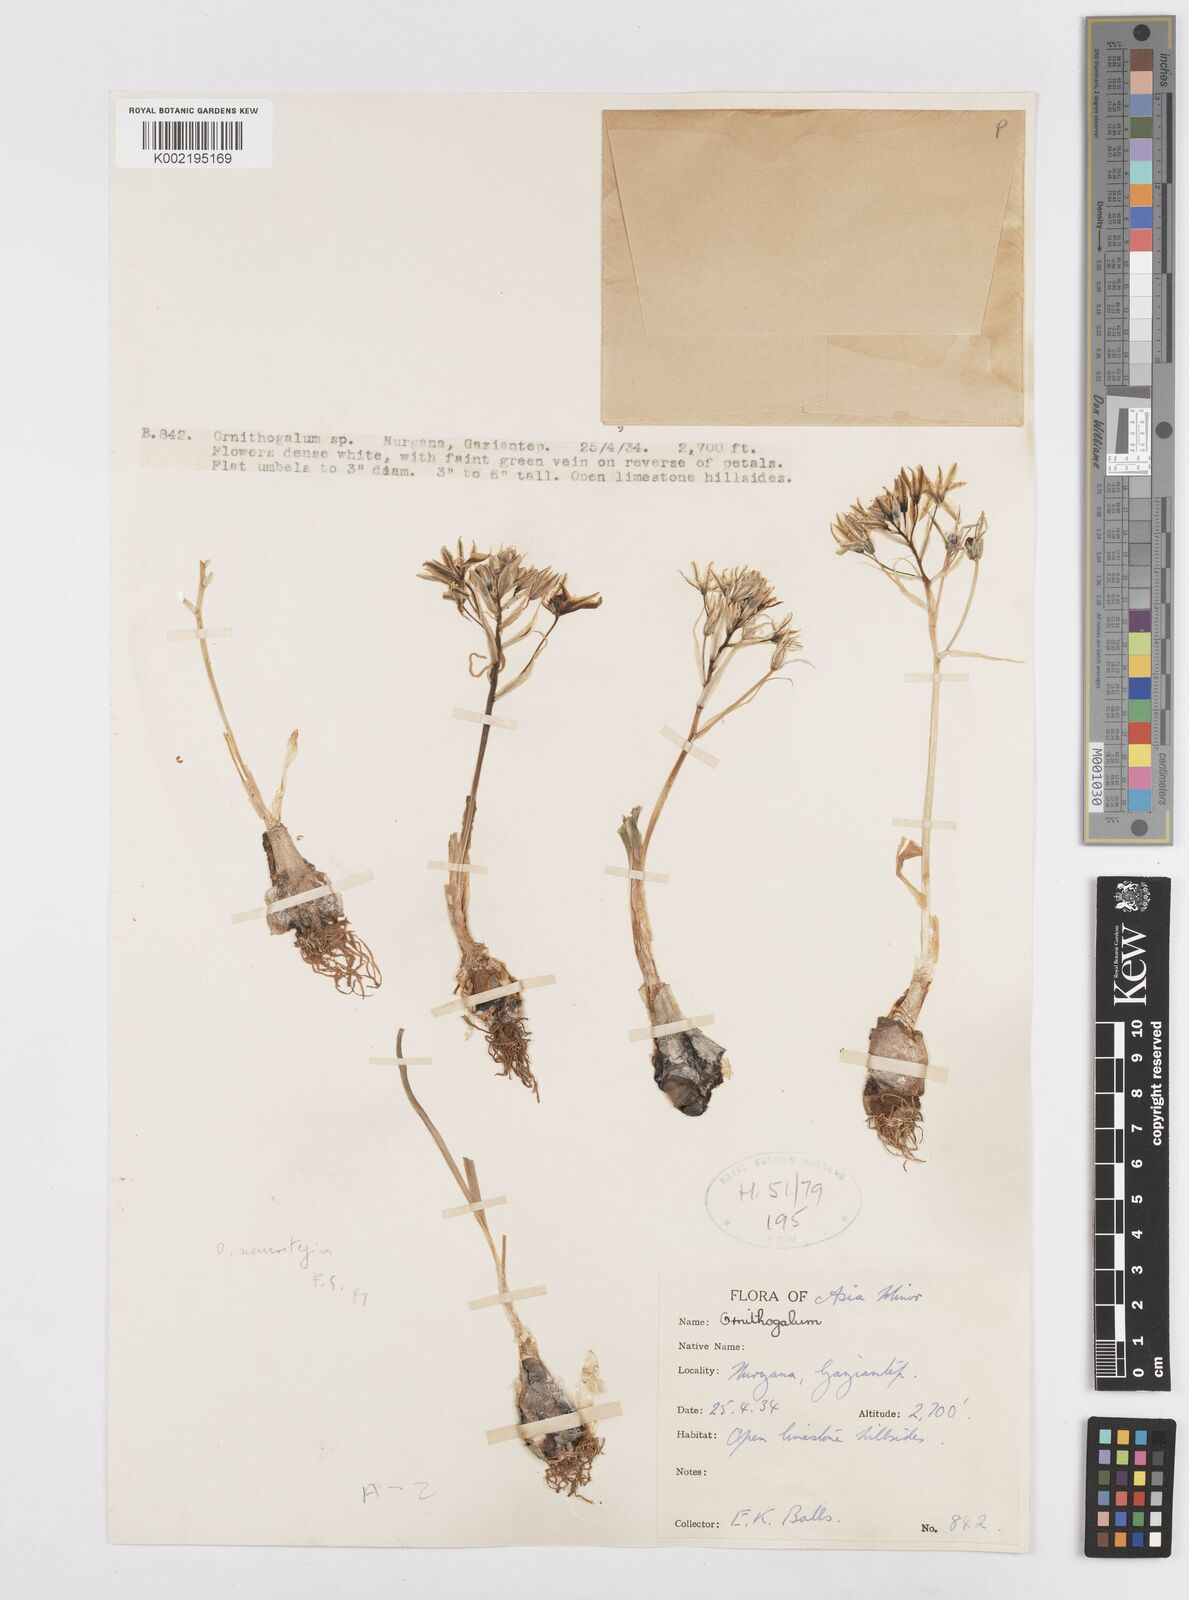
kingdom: Plantae
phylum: Tracheophyta
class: Liliopsida
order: Asparagales
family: Asparagaceae
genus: Ornithogalum
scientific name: Ornithogalum neurostegium
